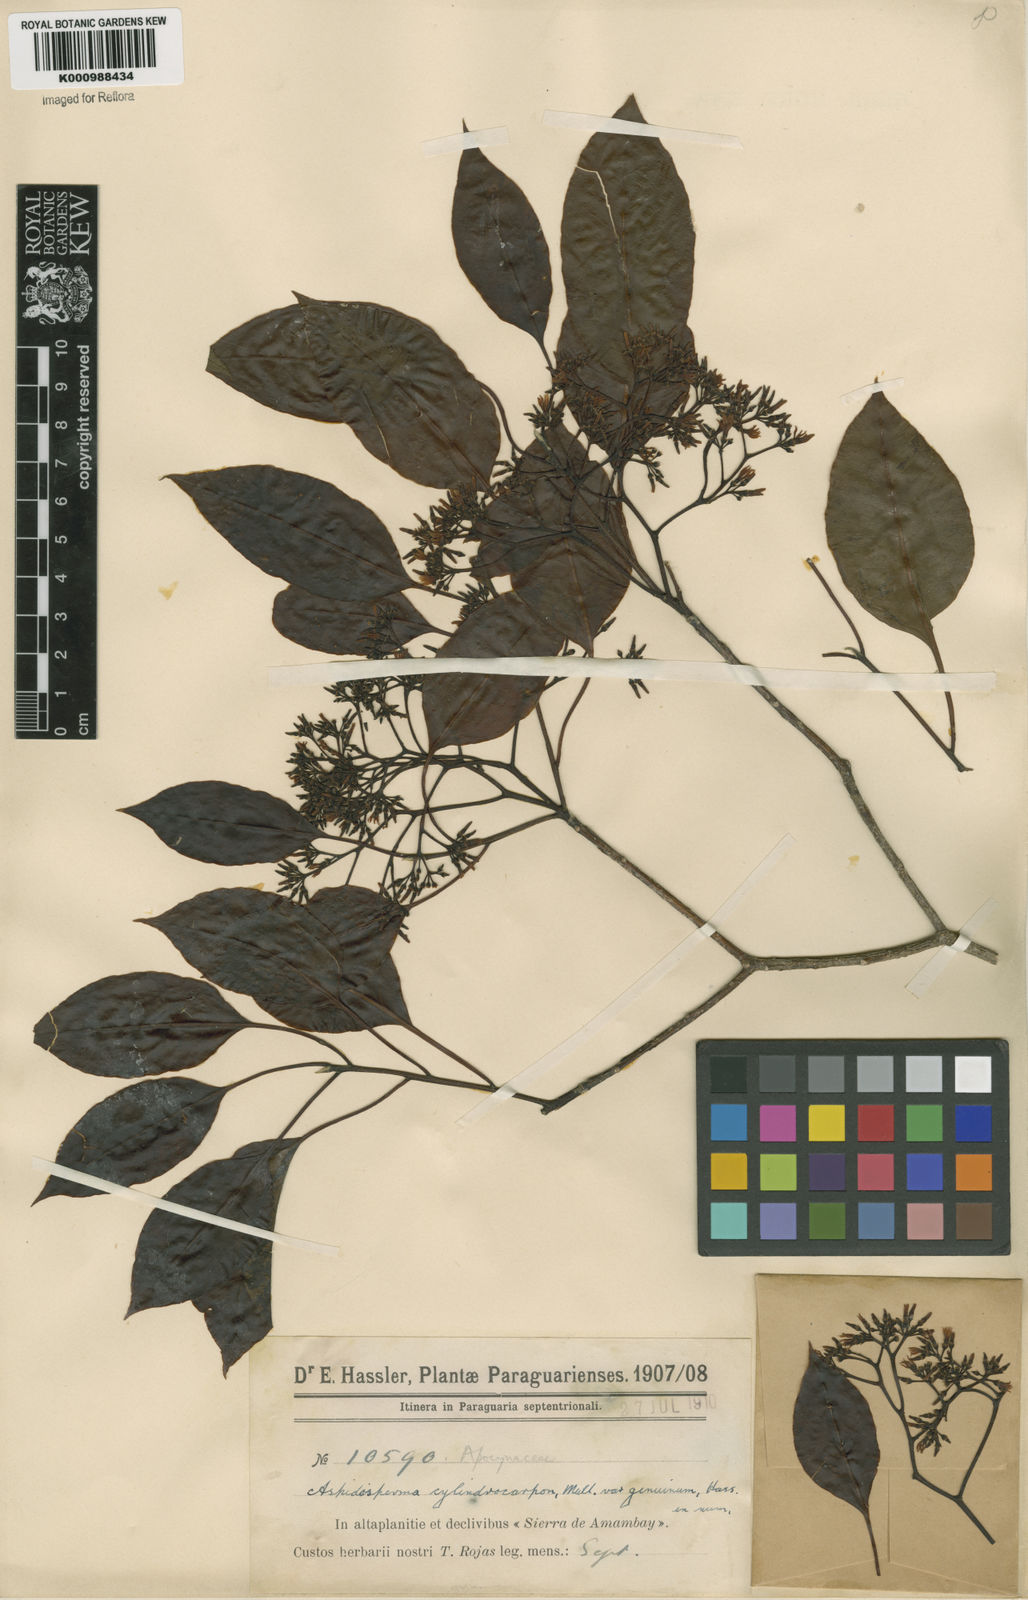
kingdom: Plantae
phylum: Tracheophyta
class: Magnoliopsida
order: Gentianales
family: Apocynaceae
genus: Aspidosperma
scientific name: Aspidosperma
